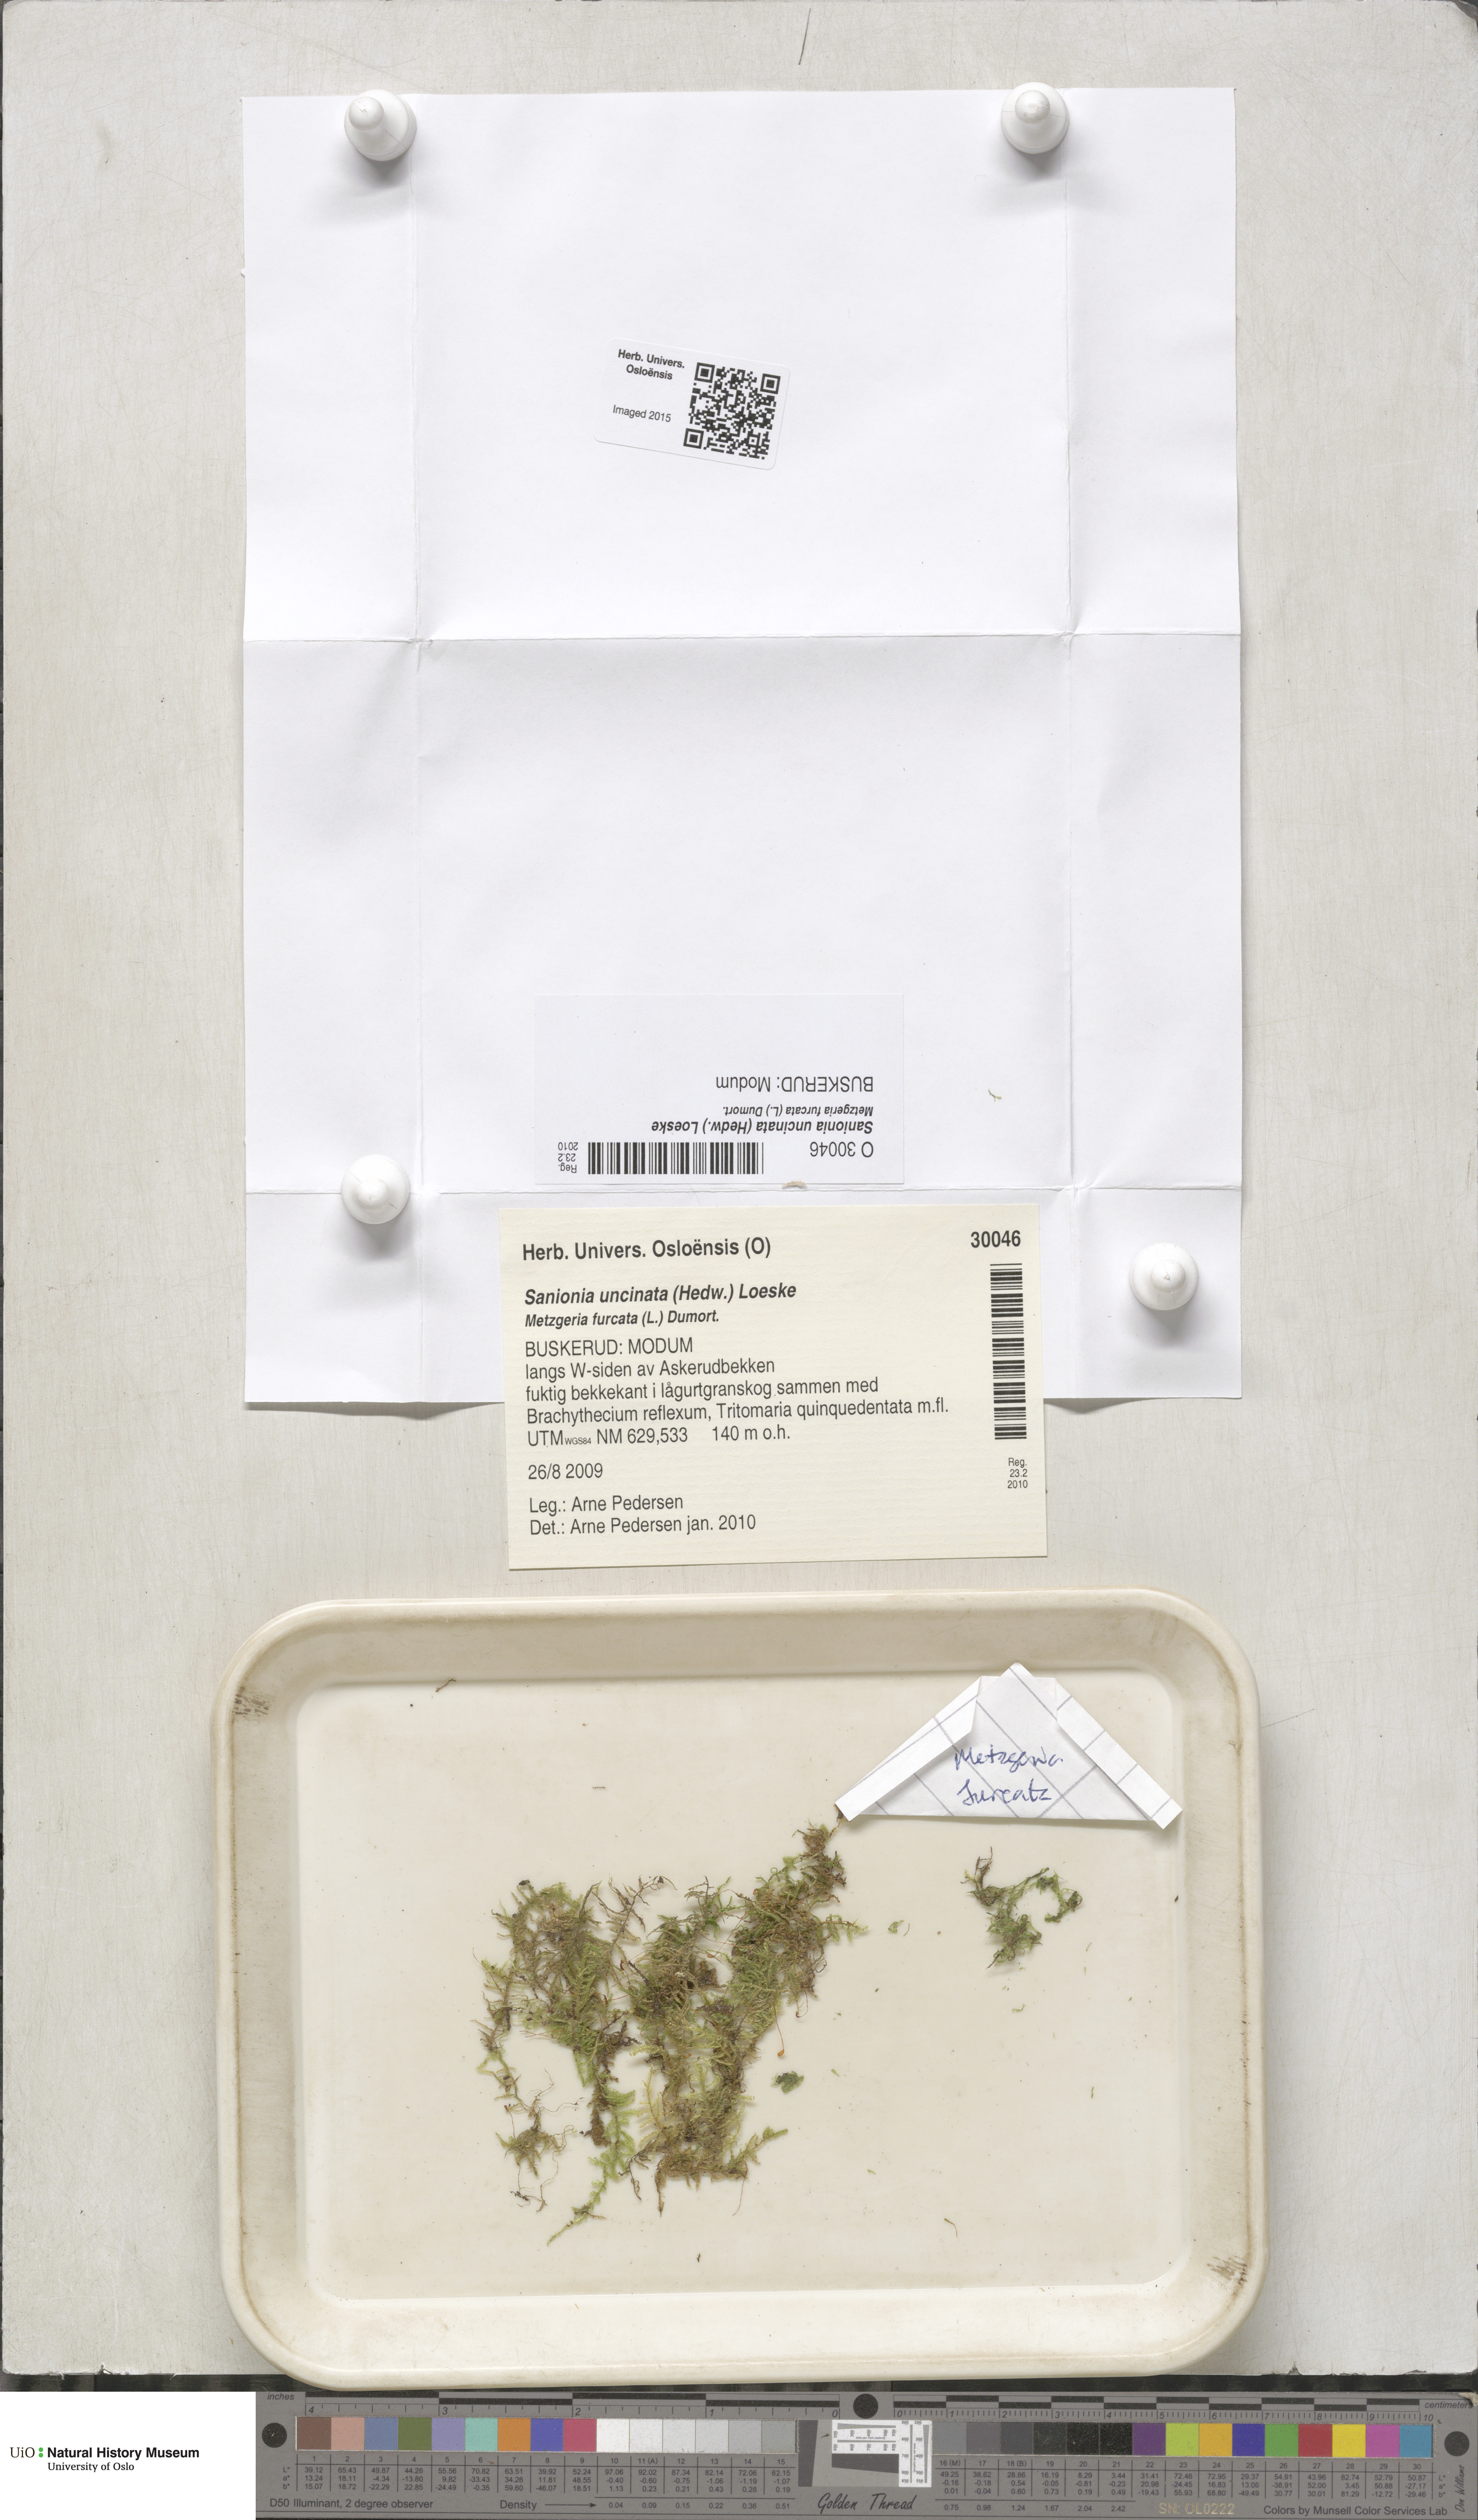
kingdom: Plantae
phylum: Bryophyta
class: Bryopsida
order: Hypnales
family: Scorpidiaceae
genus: Sanionia
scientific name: Sanionia uncinata
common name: Sickle moss
